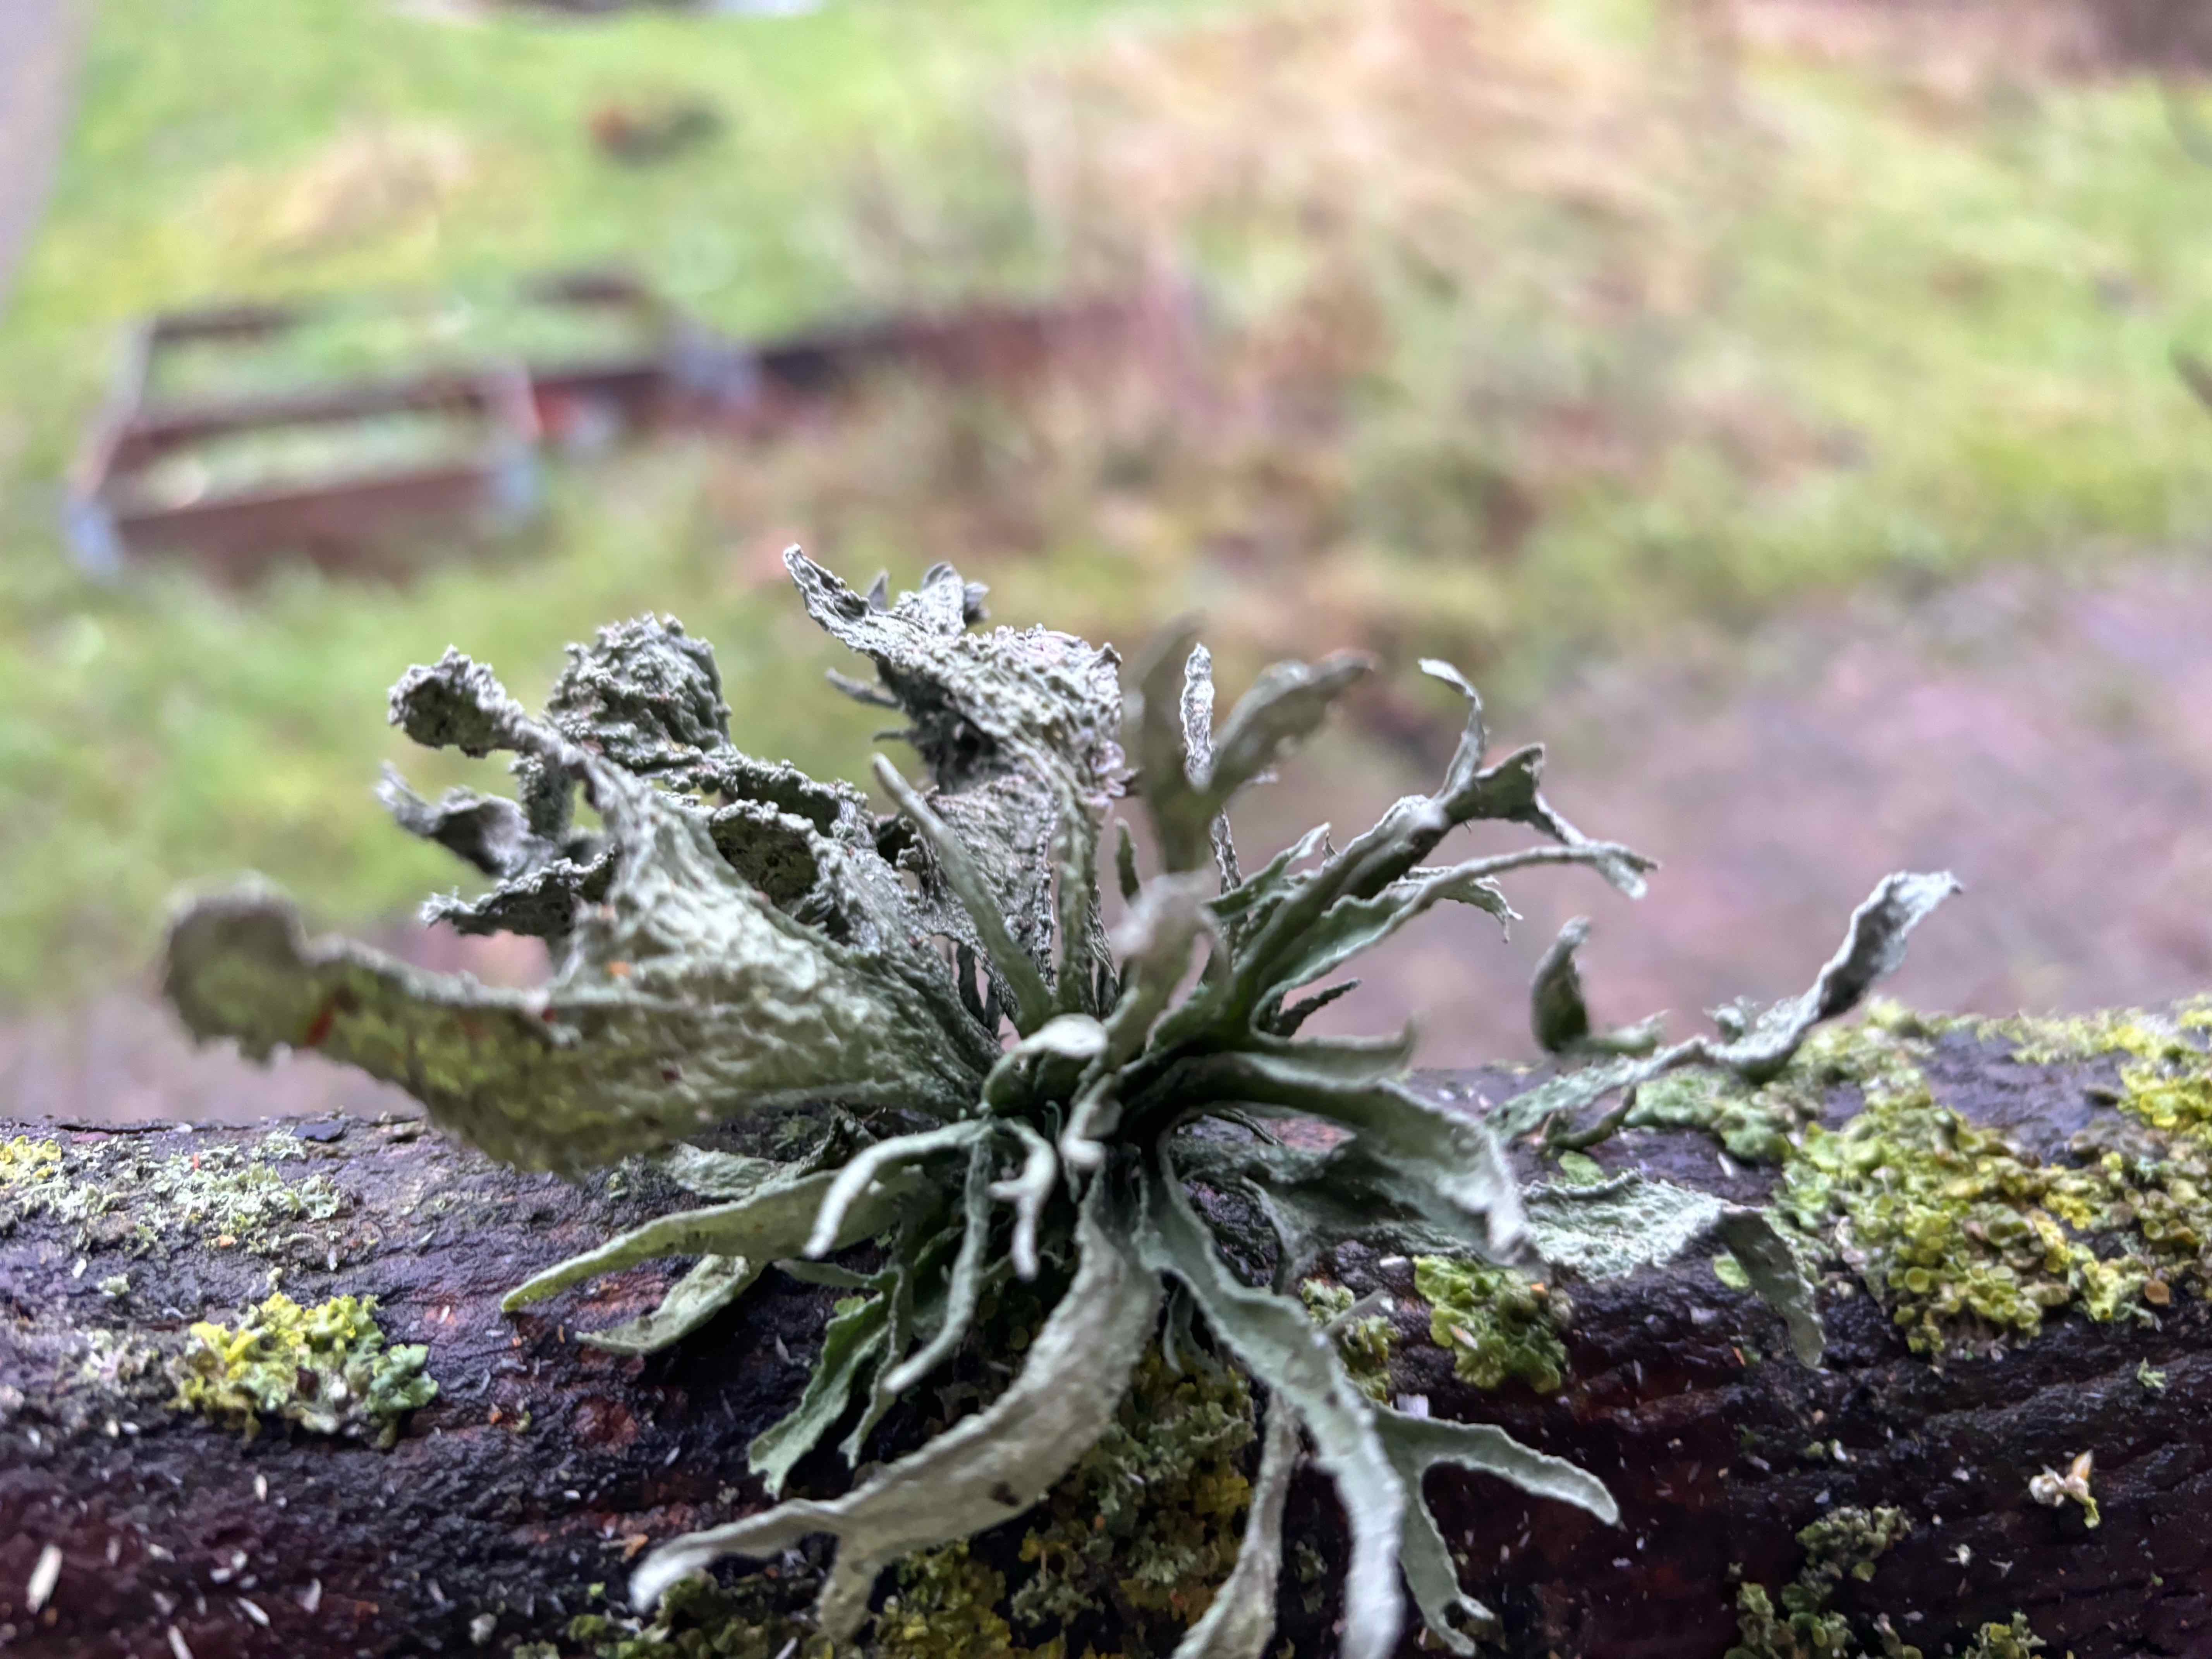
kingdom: Fungi
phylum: Ascomycota
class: Lecanoromycetes
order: Lecanorales
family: Ramalinaceae
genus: Ramalina
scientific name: Ramalina fraxinea
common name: stor grenlav
